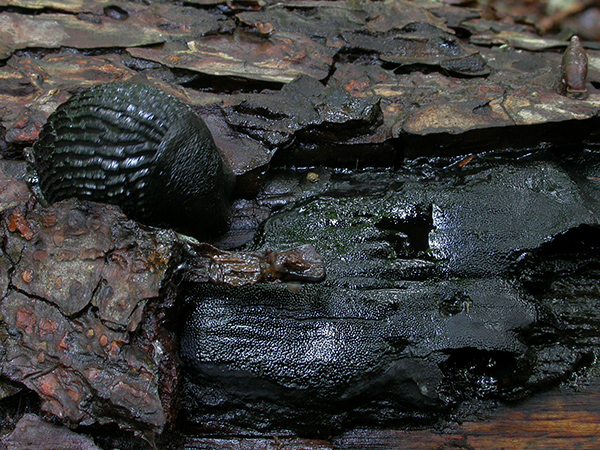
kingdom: Fungi
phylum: Ascomycota
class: Sordariomycetes
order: Boliniales
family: Boliniaceae
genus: Camarops
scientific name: Camarops polysperma
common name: elle-kulsnegl
